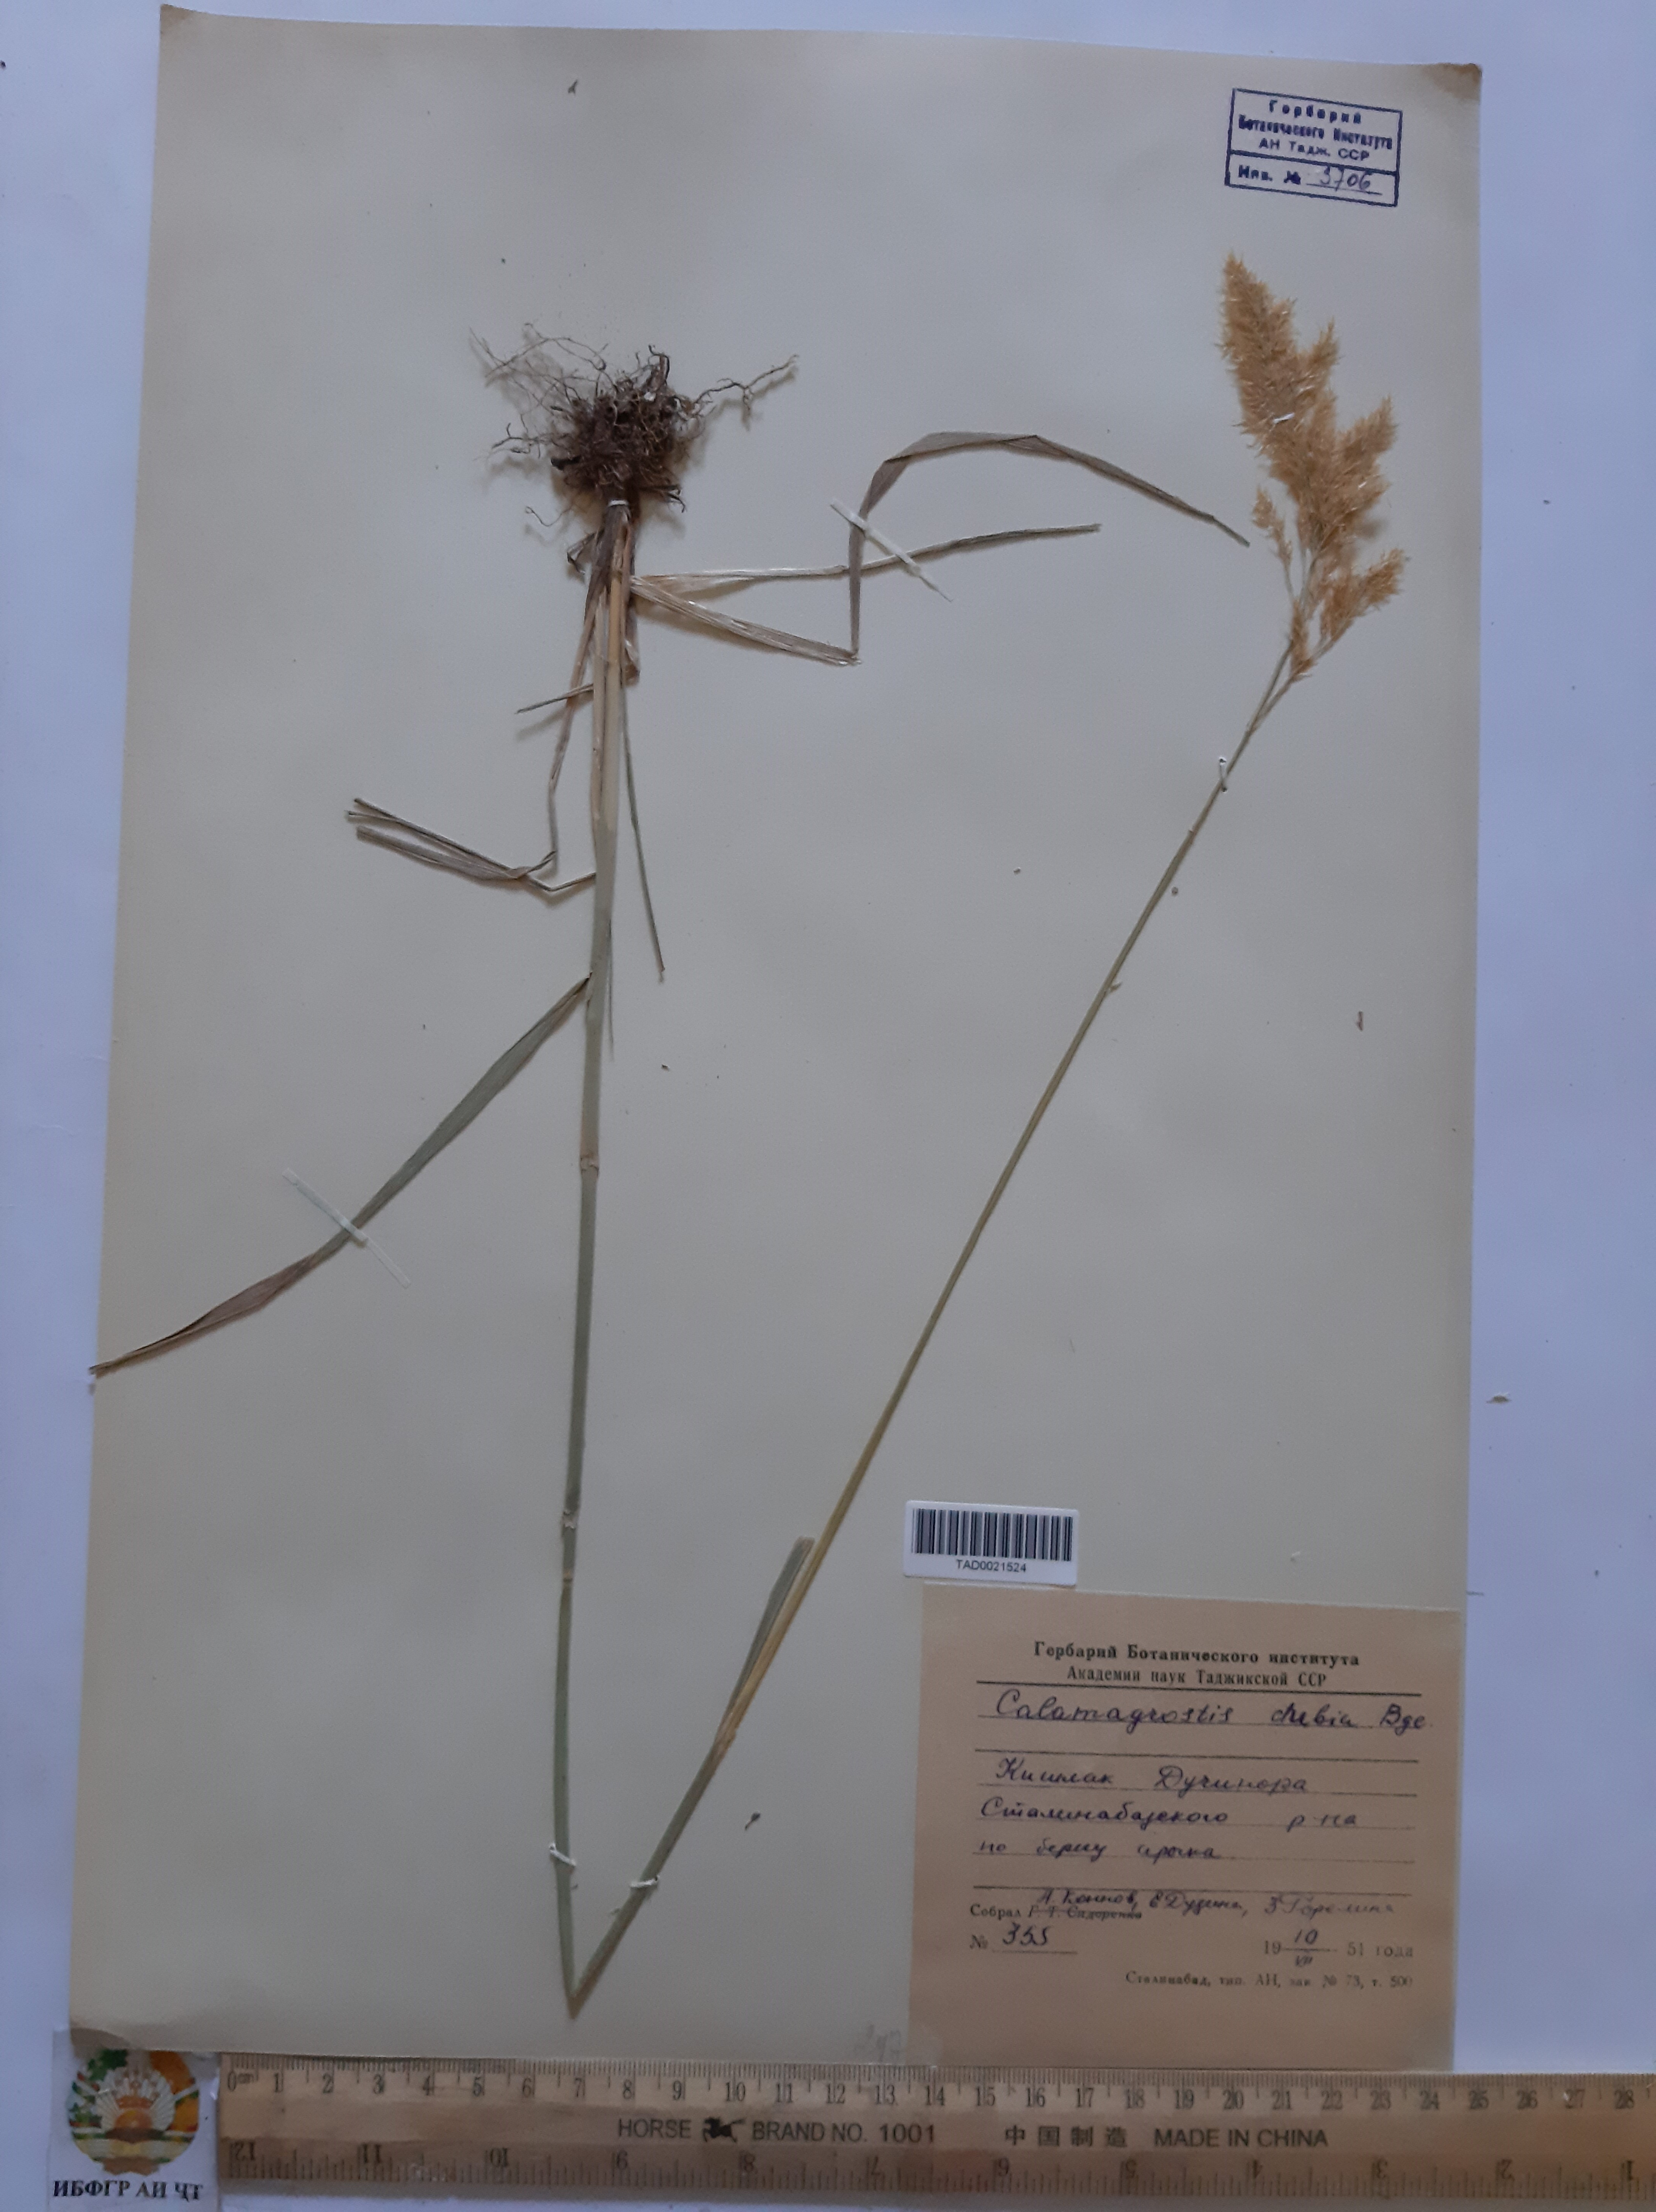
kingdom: Plantae
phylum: Tracheophyta
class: Liliopsida
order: Poales
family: Poaceae
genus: Calamagrostis
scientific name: Calamagrostis pseudophragmites
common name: Coastal small-reed
